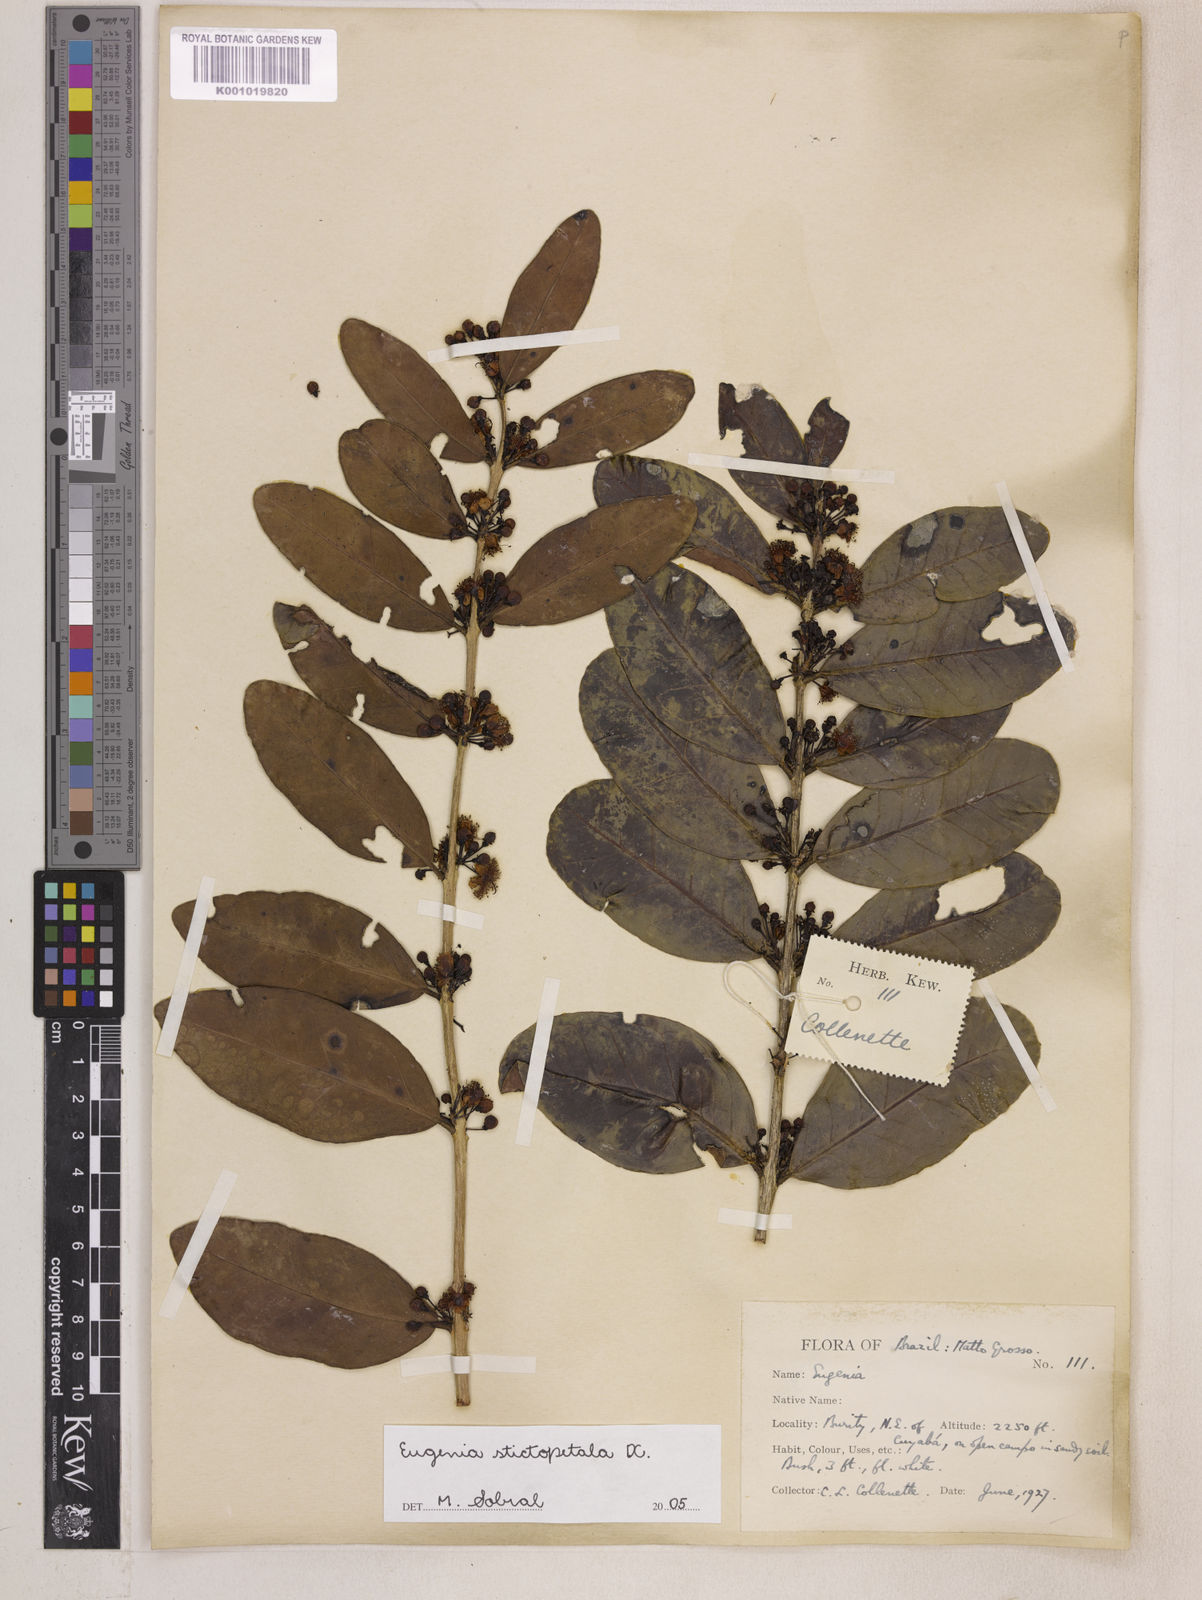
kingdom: Plantae
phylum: Tracheophyta
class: Magnoliopsida
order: Myrtales
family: Myrtaceae
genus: Eugenia
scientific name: Eugenia stictopetala
